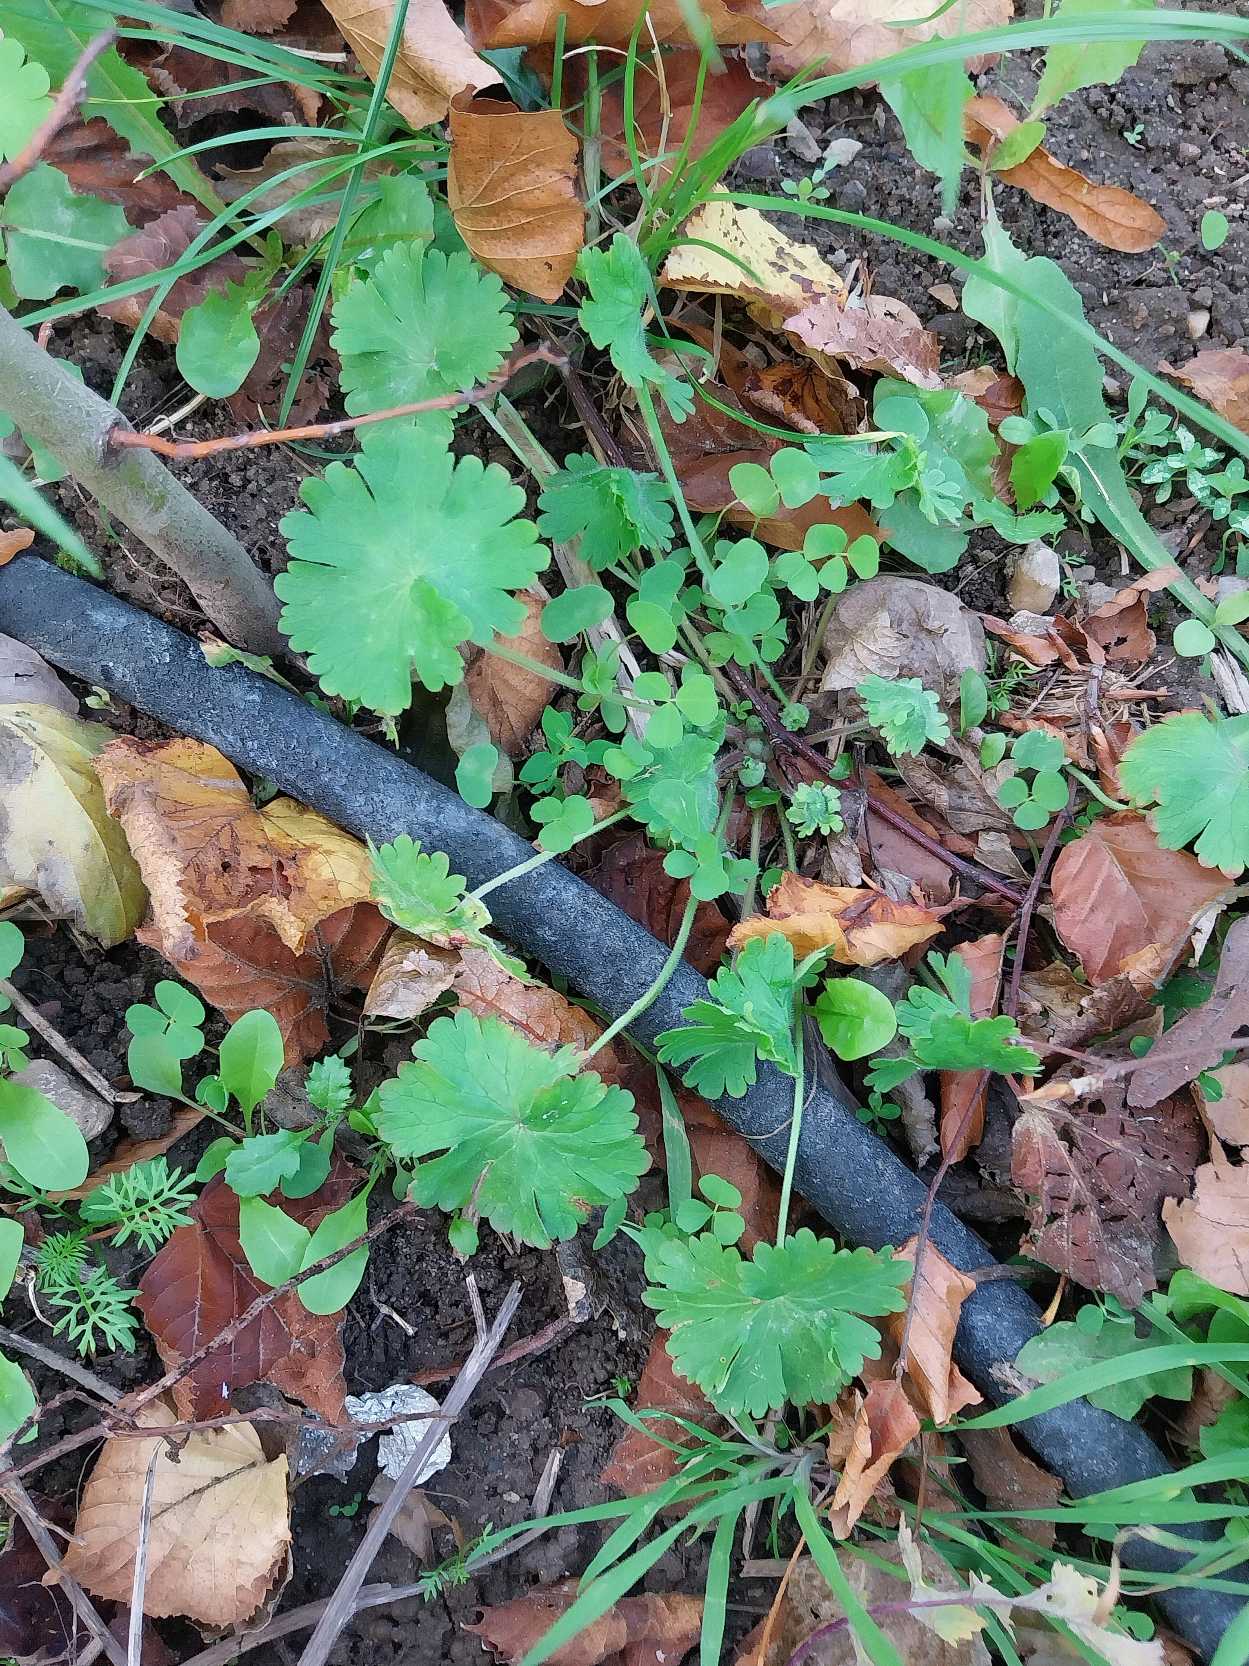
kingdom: Plantae
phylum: Tracheophyta
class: Magnoliopsida
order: Geraniales
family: Geraniaceae
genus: Geranium
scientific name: Geranium pusillum
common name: Liden storkenæb
